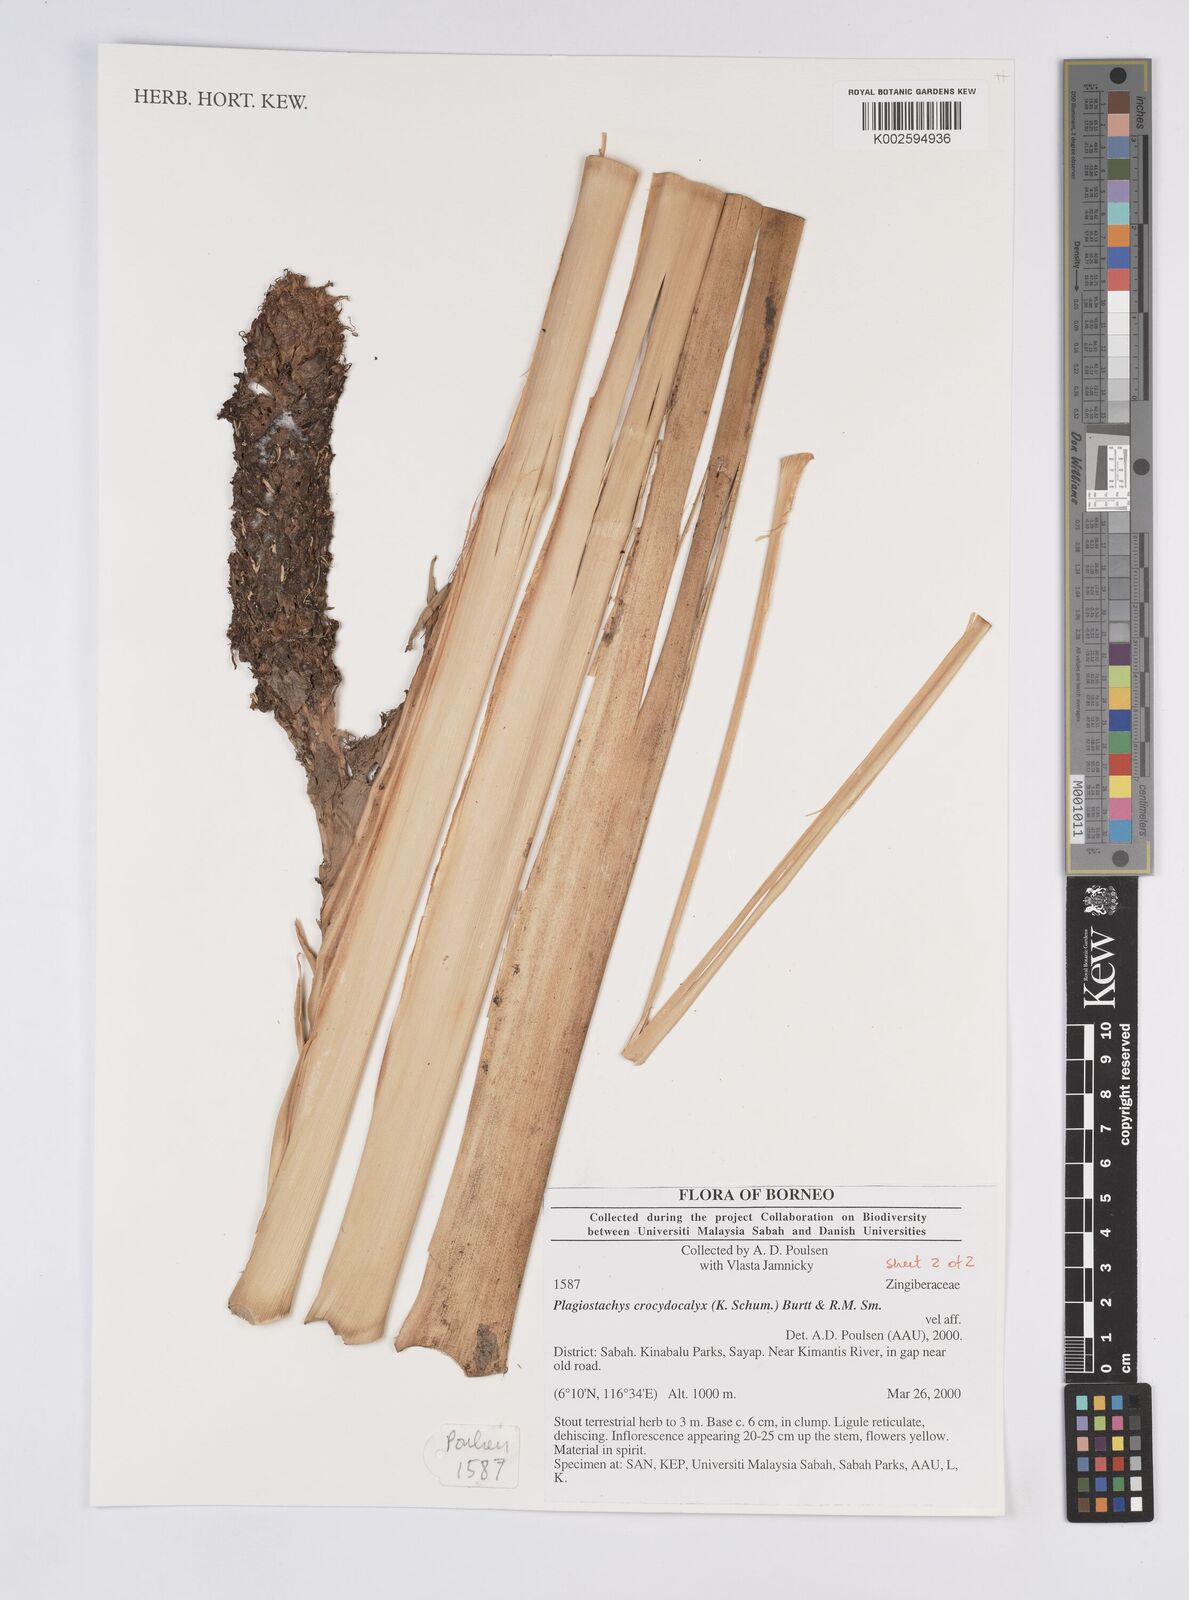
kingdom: Plantae
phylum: Tracheophyta
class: Liliopsida
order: Zingiberales
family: Zingiberaceae
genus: Plagiostachys
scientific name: Plagiostachys crocydocalyx
